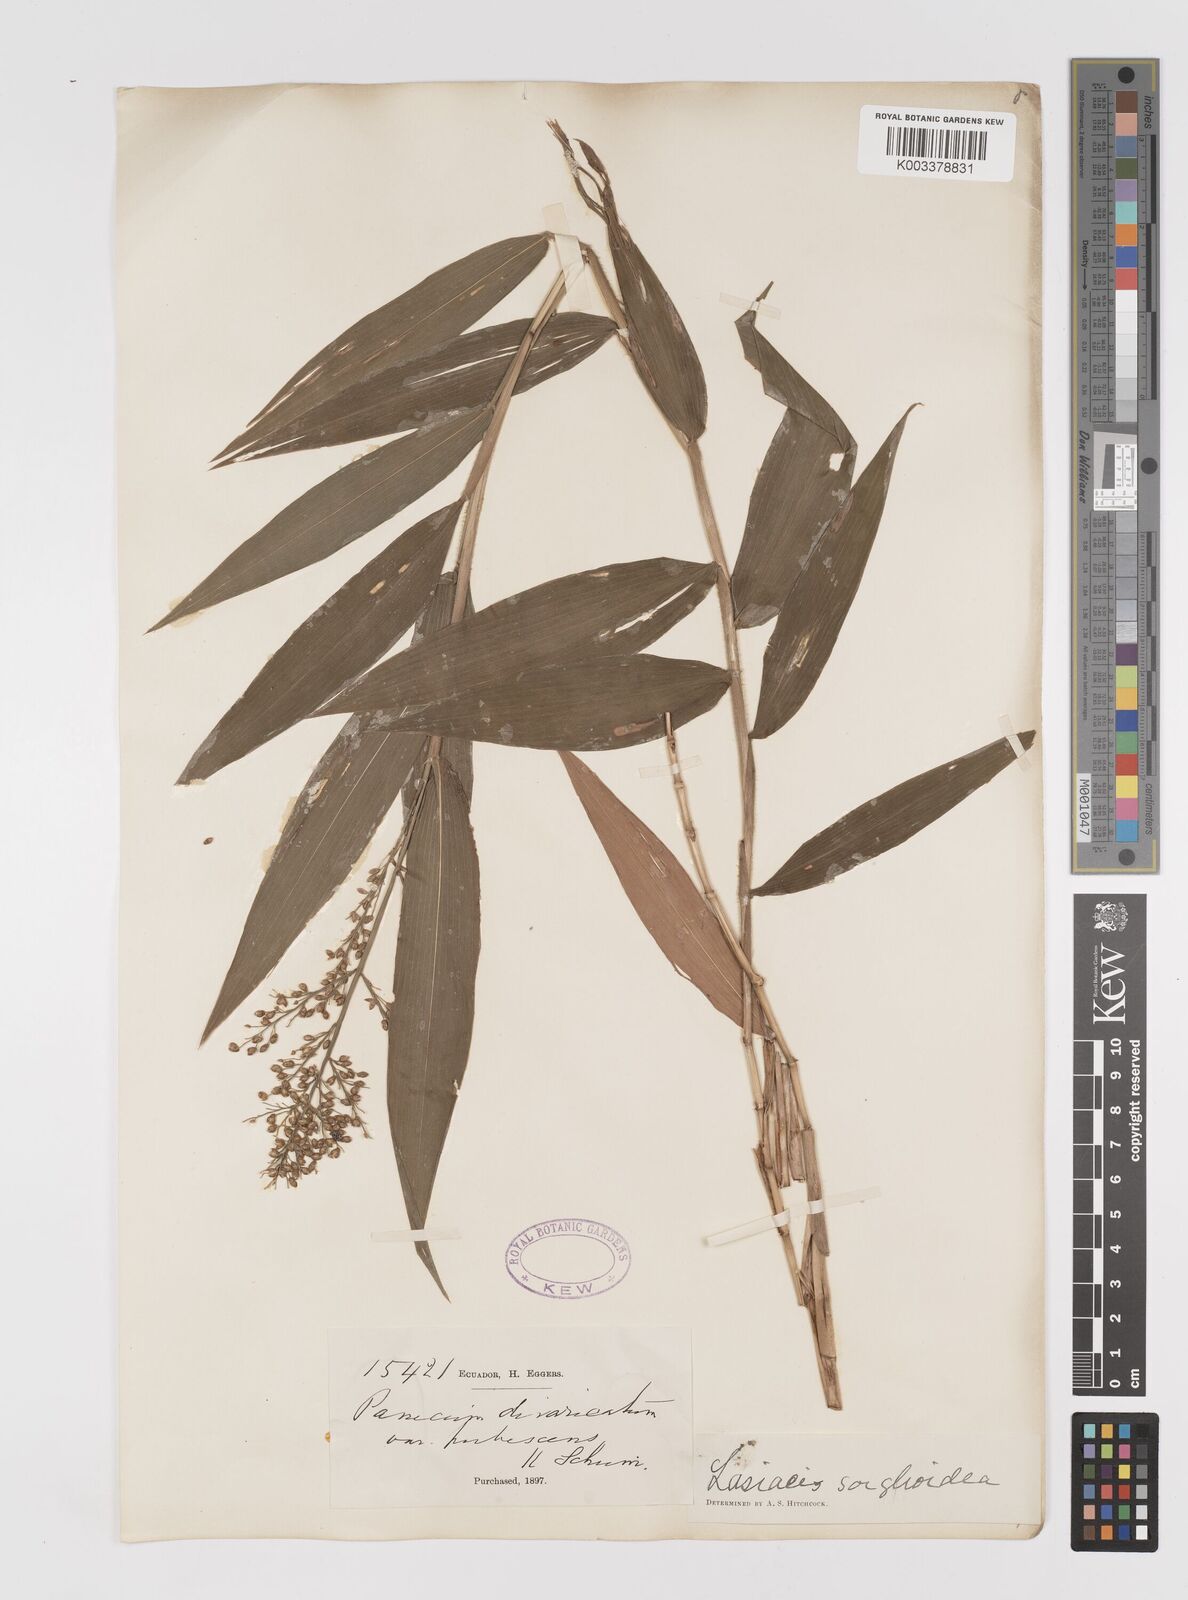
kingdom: Plantae
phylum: Tracheophyta
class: Liliopsida
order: Poales
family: Poaceae
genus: Lasiacis
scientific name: Lasiacis maculata
